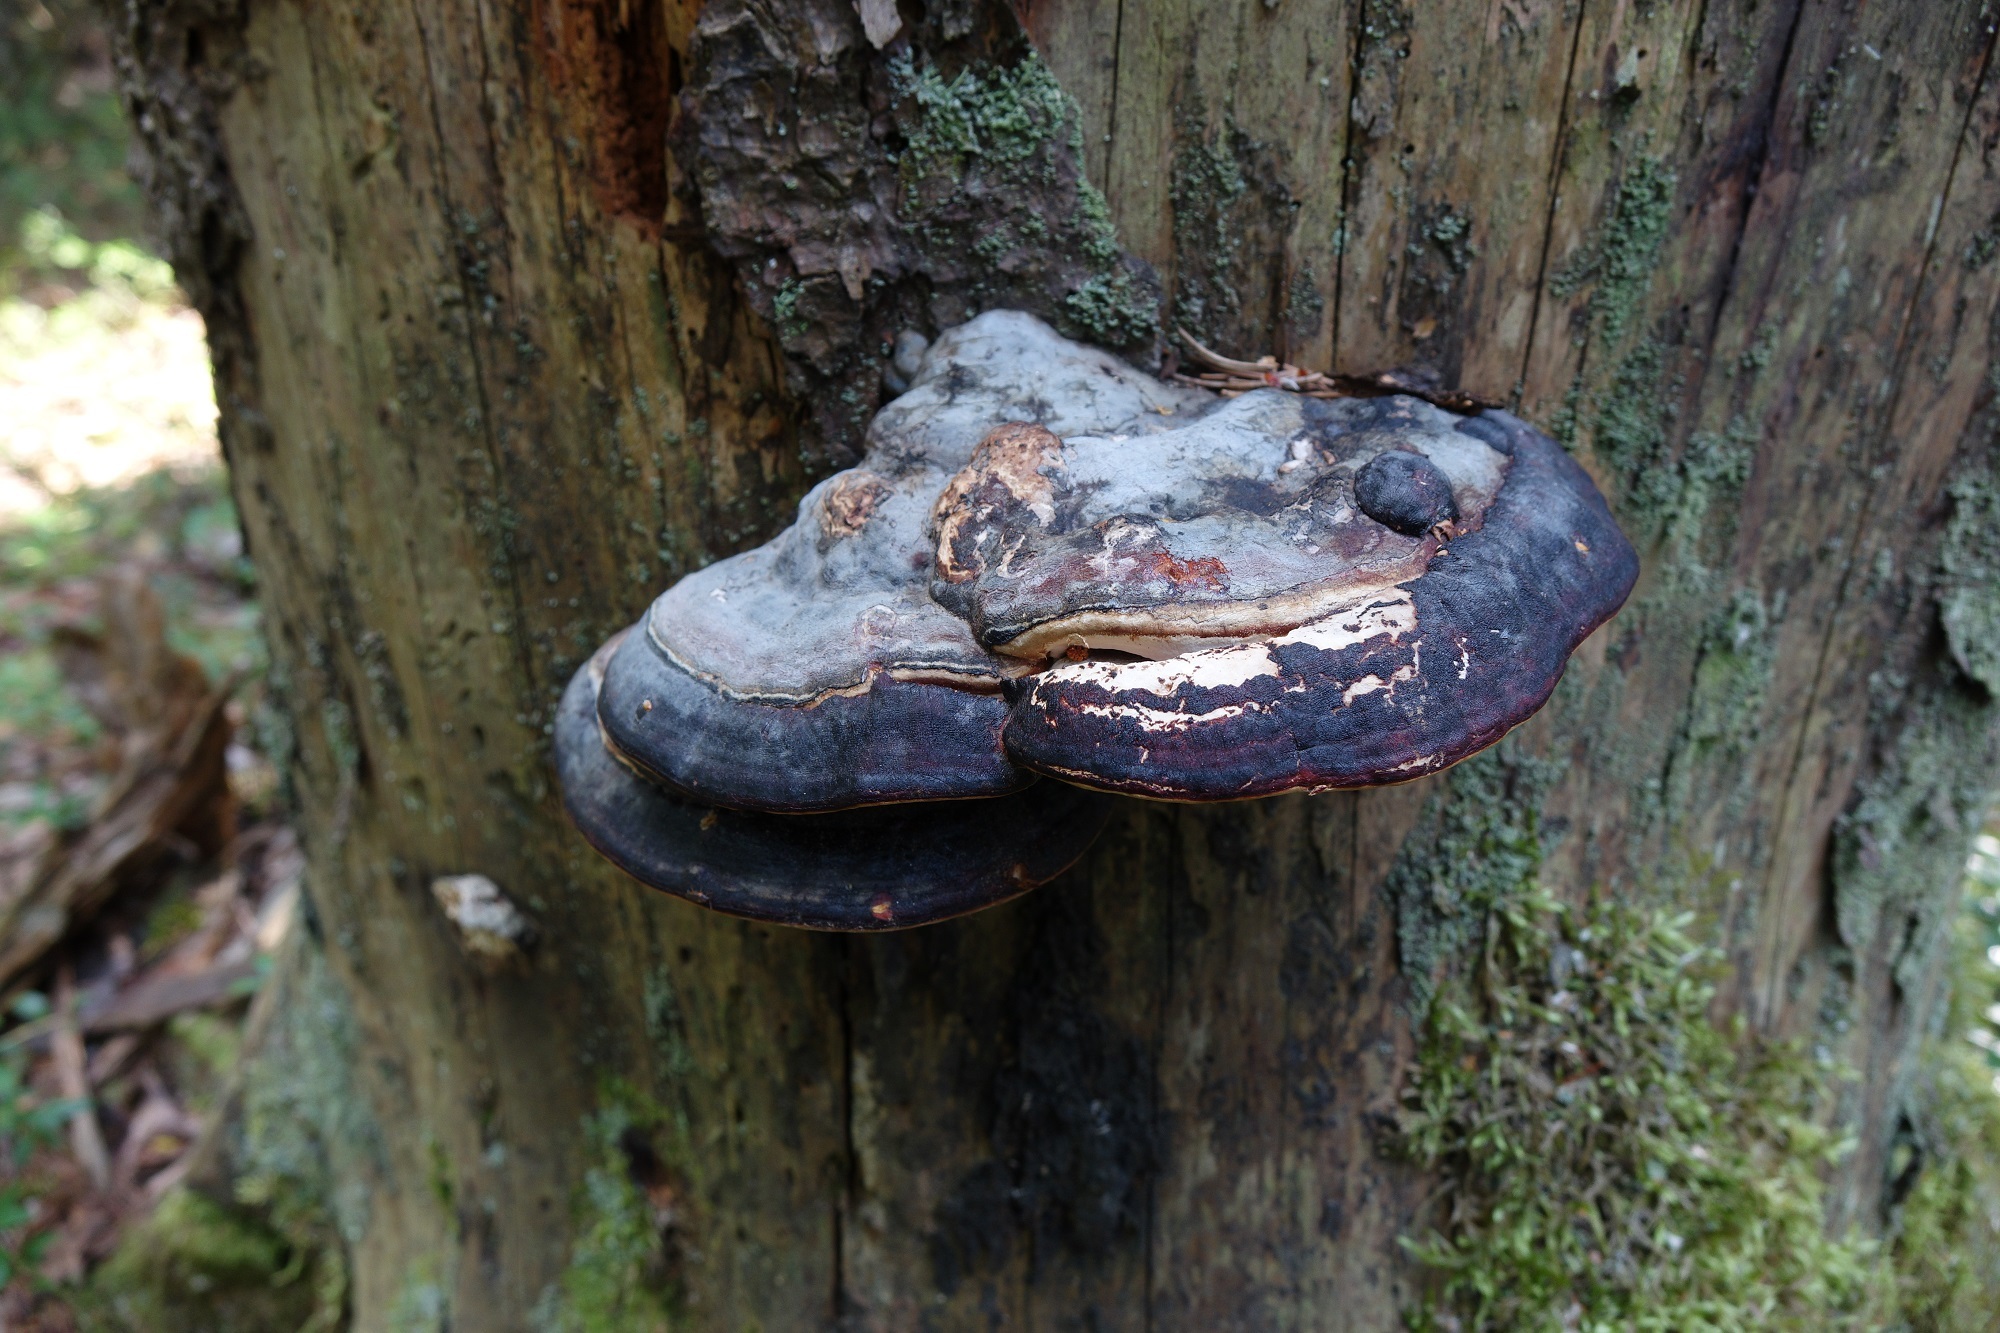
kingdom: Fungi
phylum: Basidiomycota
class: Agaricomycetes
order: Polyporales
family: Fomitopsidaceae
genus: Fomitopsis
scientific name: Fomitopsis pinicola
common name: Red-belted bracket
